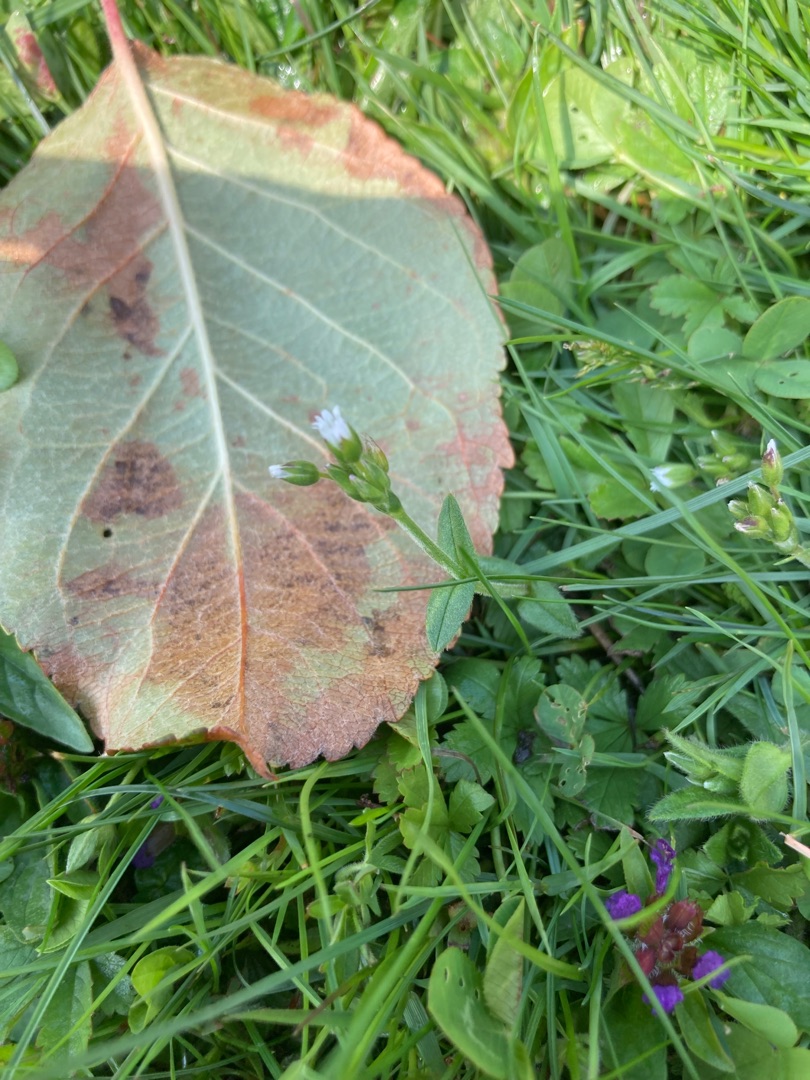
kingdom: Plantae
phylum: Tracheophyta
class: Magnoliopsida
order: Caryophyllales
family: Caryophyllaceae
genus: Cerastium
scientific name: Cerastium fontanum
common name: Almindelig hønsetarm
